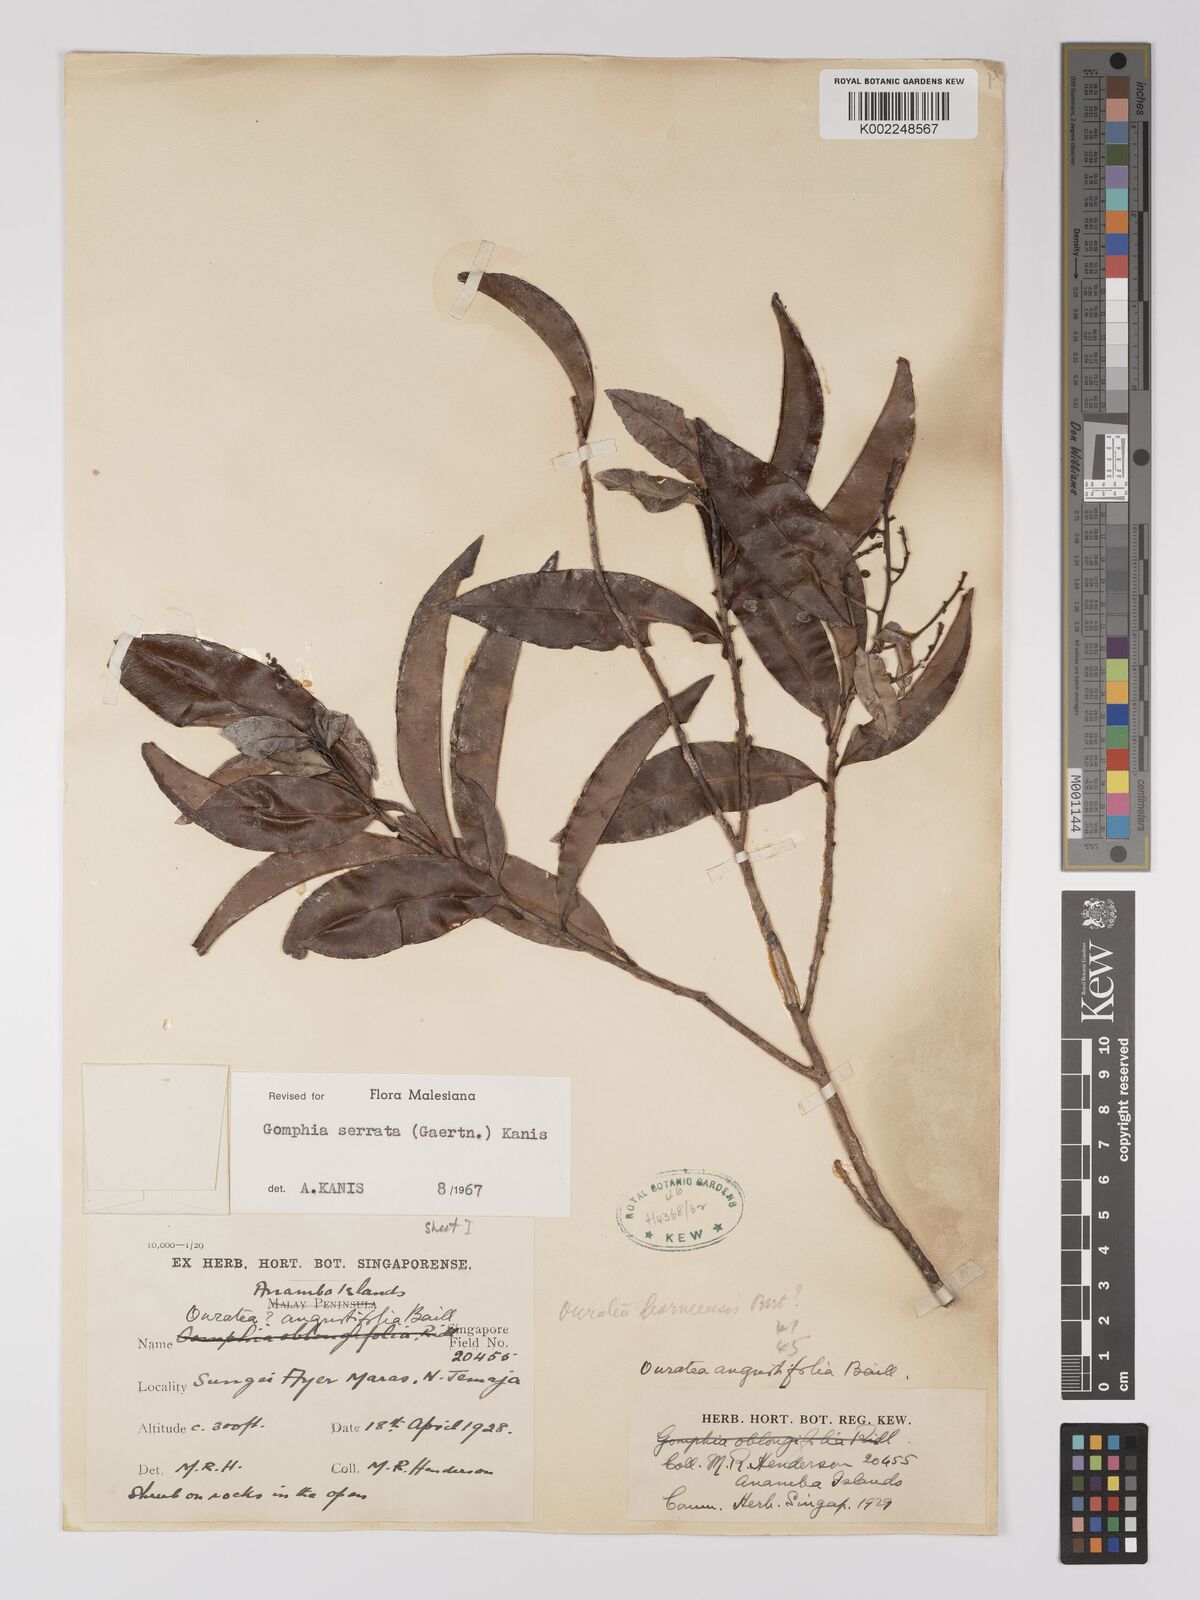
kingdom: Plantae
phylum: Tracheophyta
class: Magnoliopsida
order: Malpighiales
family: Ochnaceae
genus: Gomphia
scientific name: Gomphia serrata
